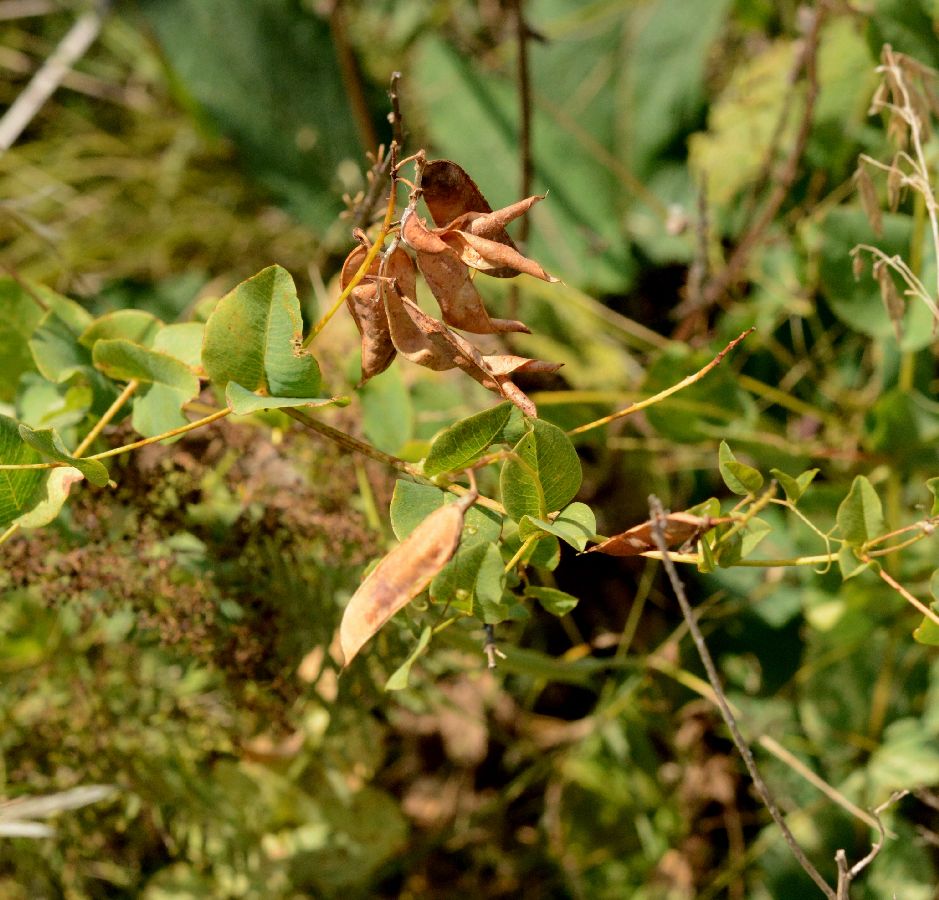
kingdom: Plantae
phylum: Tracheophyta
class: Magnoliopsida
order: Fabales
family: Fabaceae
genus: Vicia
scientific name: Vicia pisiformis
